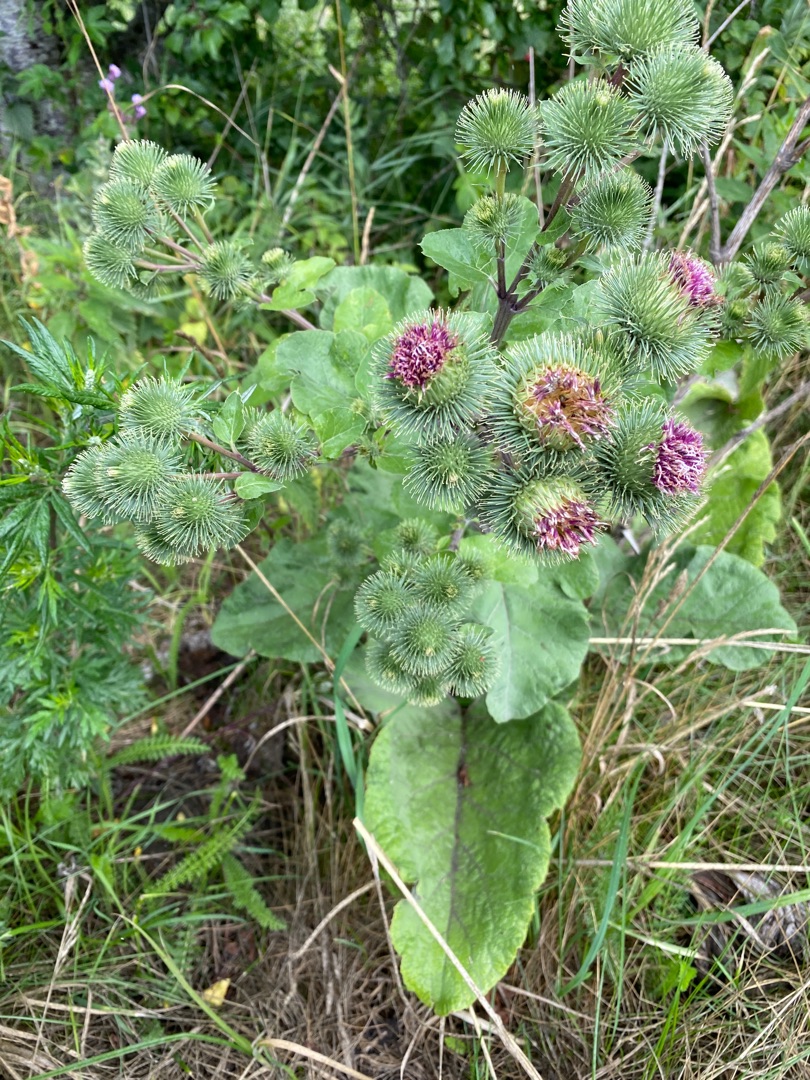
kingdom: Plantae
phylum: Tracheophyta
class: Magnoliopsida
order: Asterales
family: Asteraceae
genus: Arctium
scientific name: Arctium lappa
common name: Glat burre
